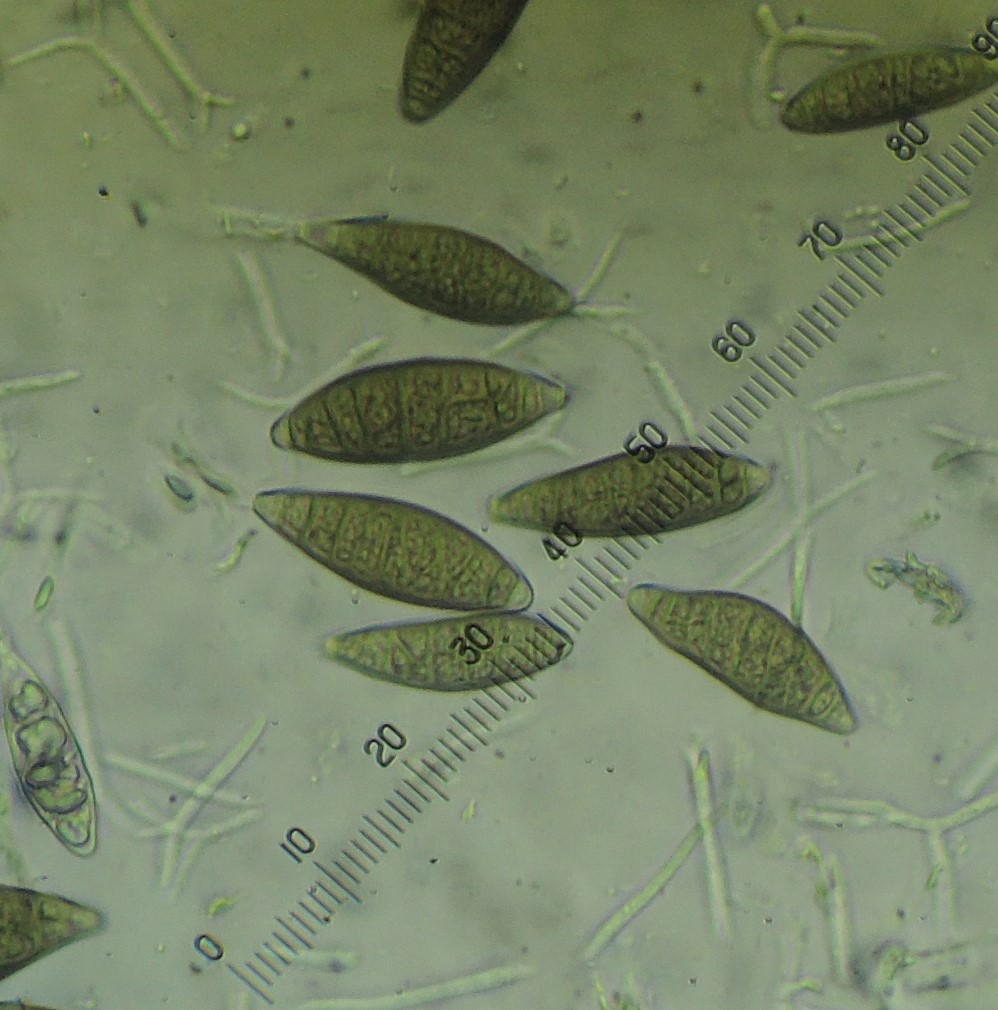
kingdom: Fungi
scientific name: Fungi
